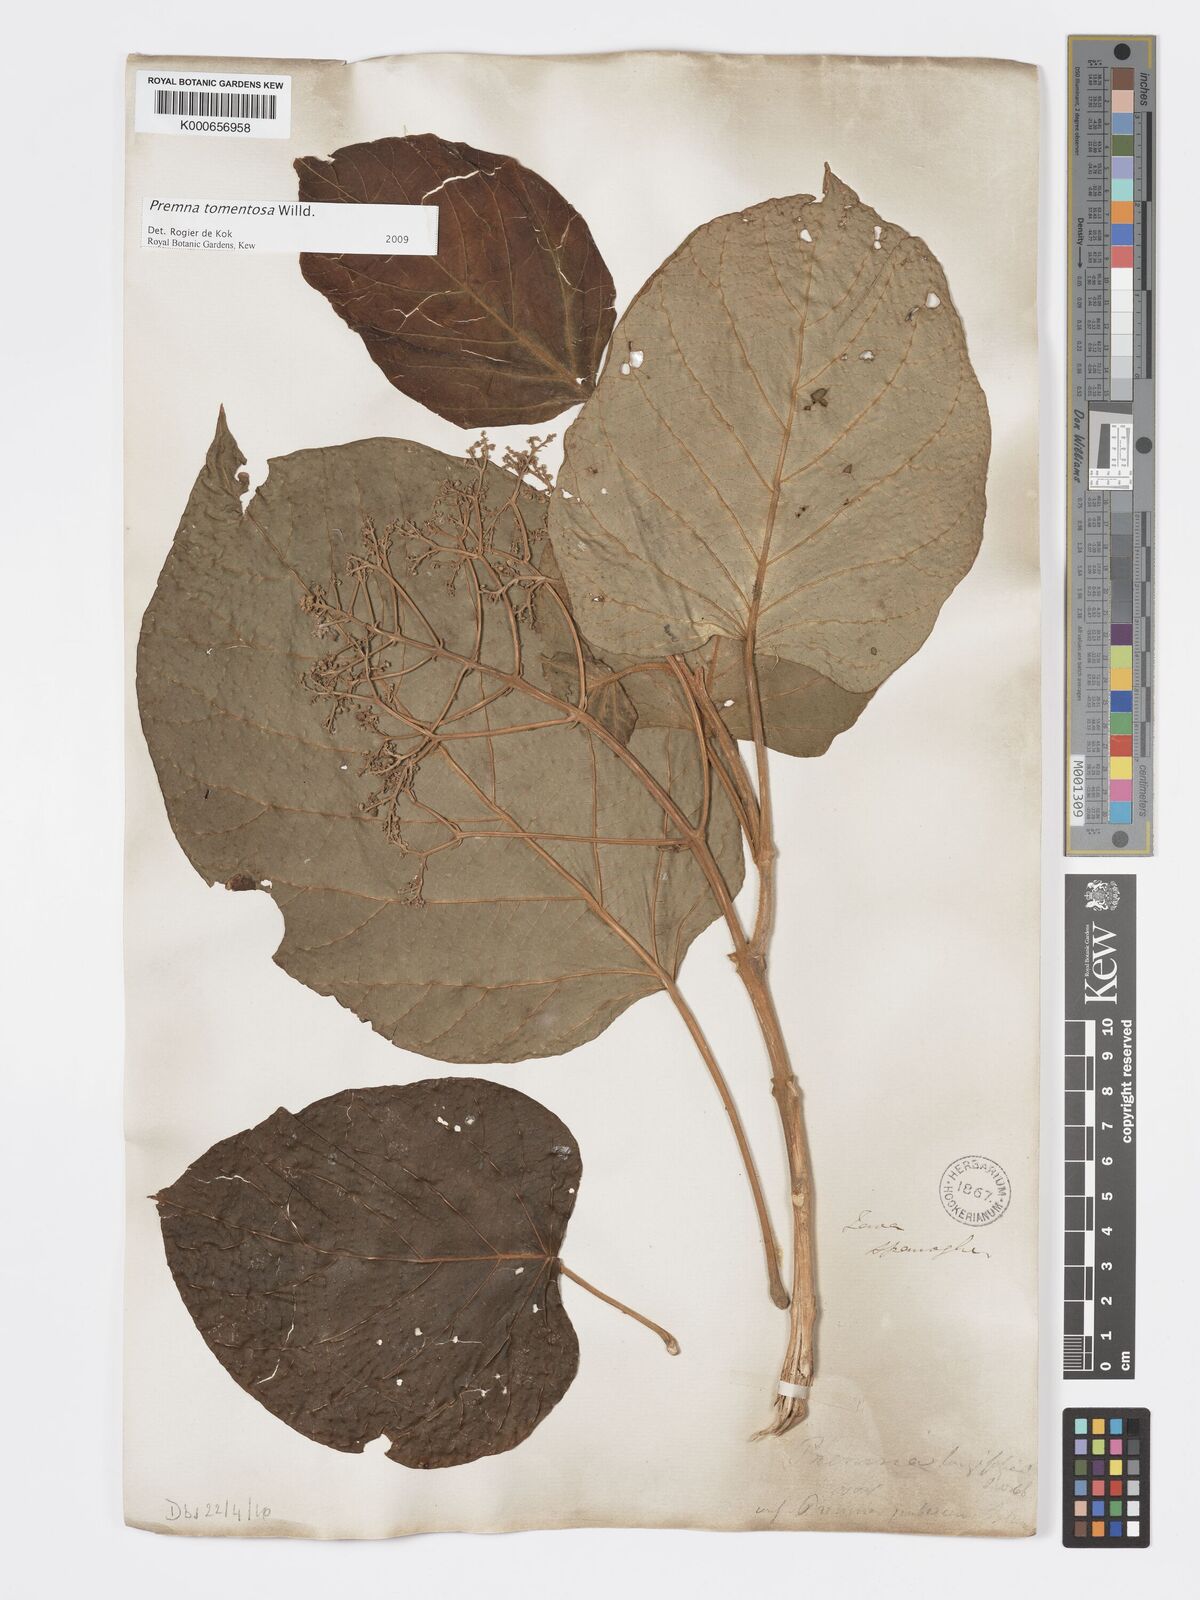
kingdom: Plantae
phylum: Tracheophyta
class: Magnoliopsida
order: Lamiales
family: Lamiaceae
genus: Premna
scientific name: Premna tomentosa
